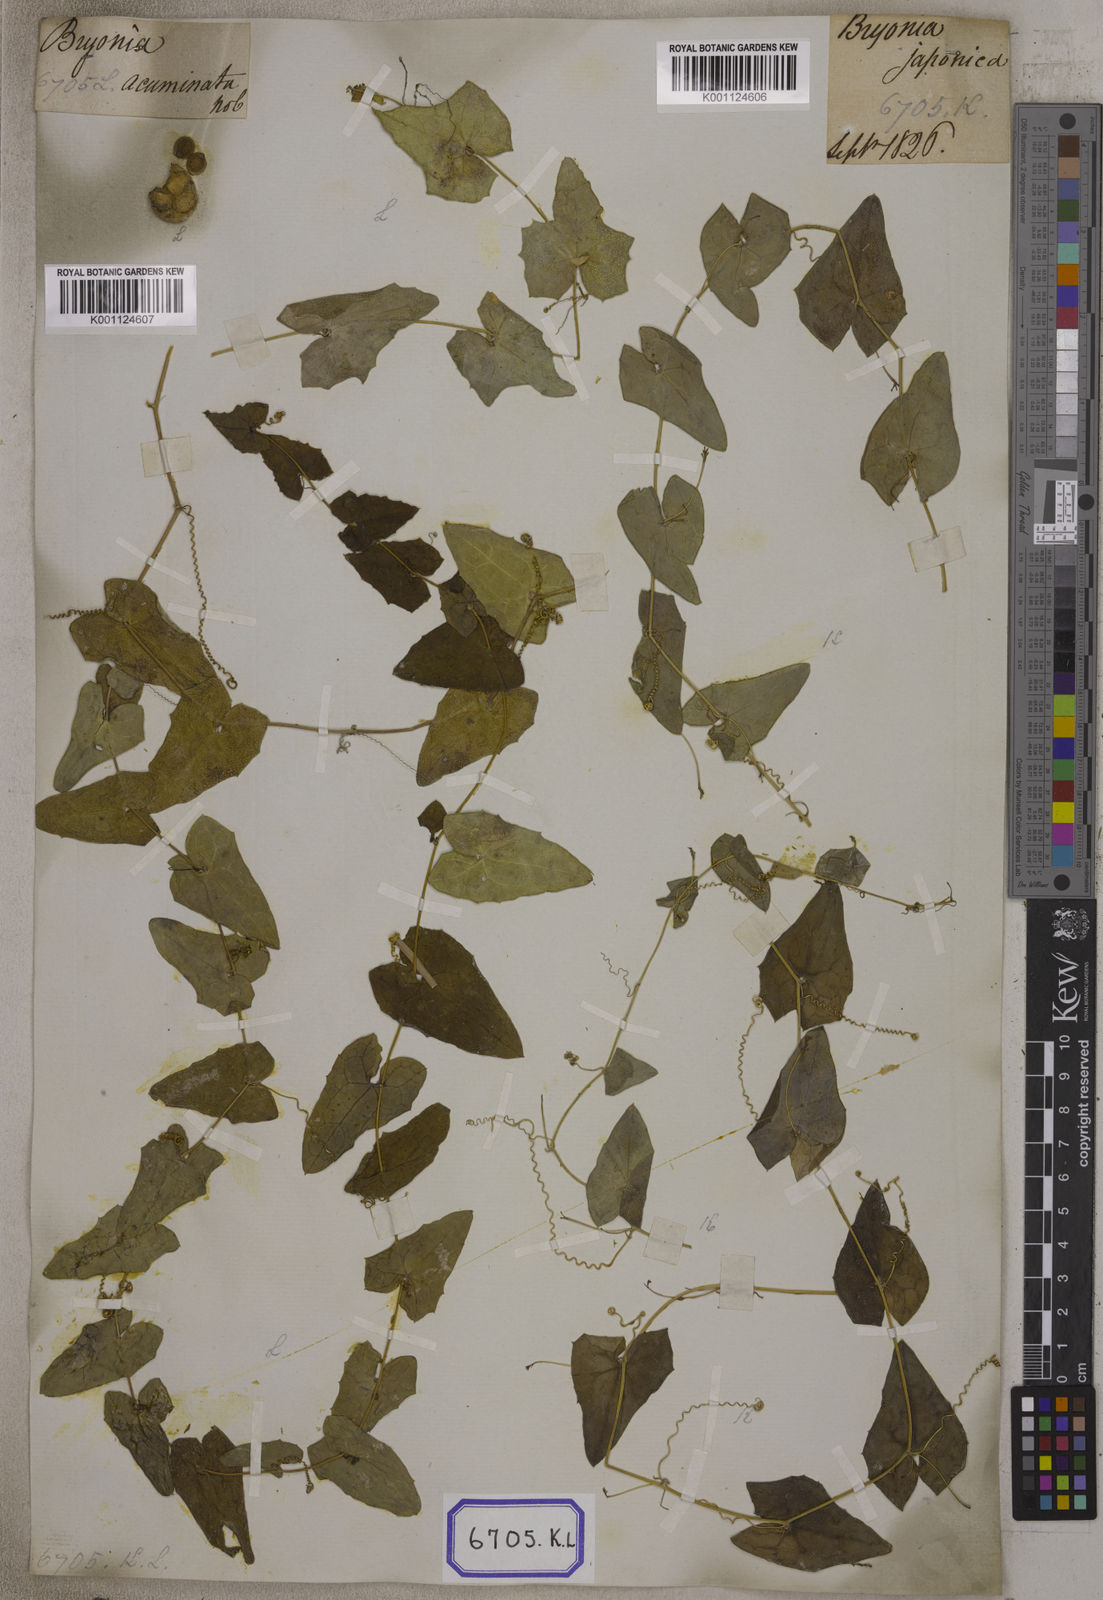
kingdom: Plantae
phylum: Tracheophyta
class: Magnoliopsida
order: Cucurbitales
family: Cucurbitaceae
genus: Bryonia
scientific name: Bryonia
